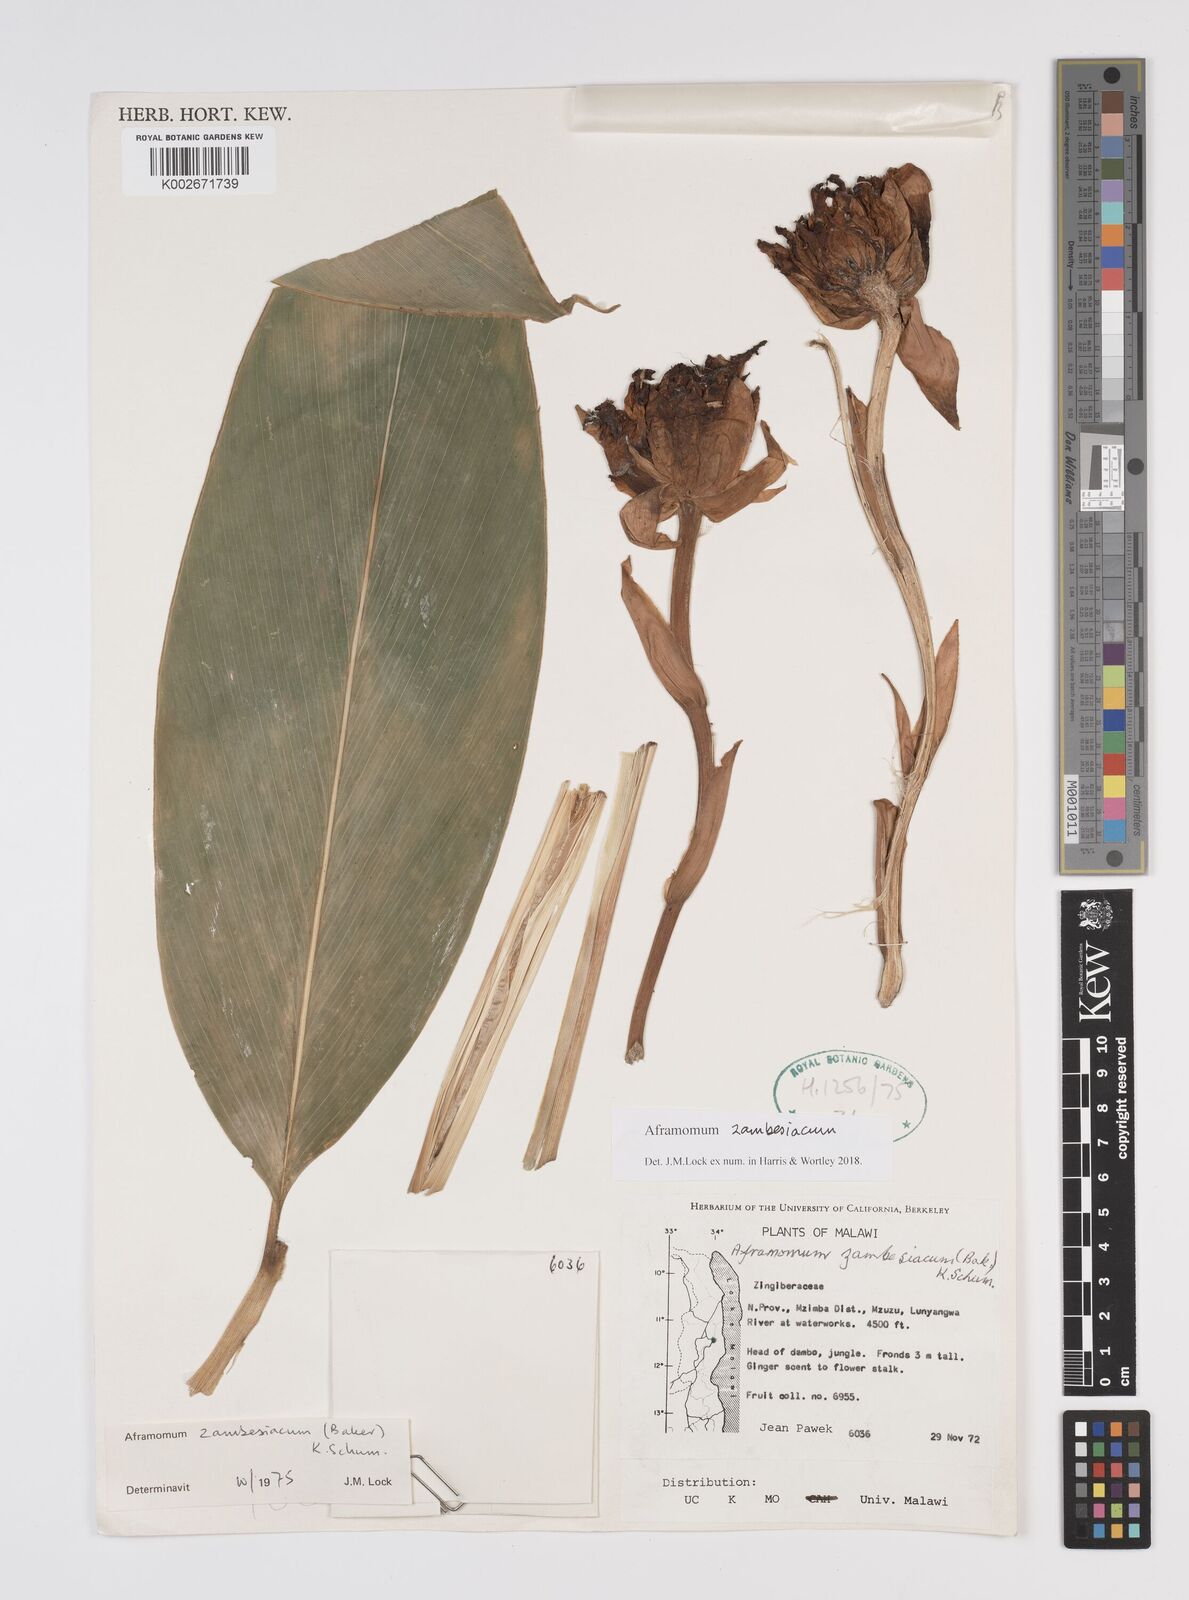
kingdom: Plantae
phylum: Tracheophyta
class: Liliopsida
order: Zingiberales
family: Zingiberaceae
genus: Aframomum
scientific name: Aframomum zambesiacum
